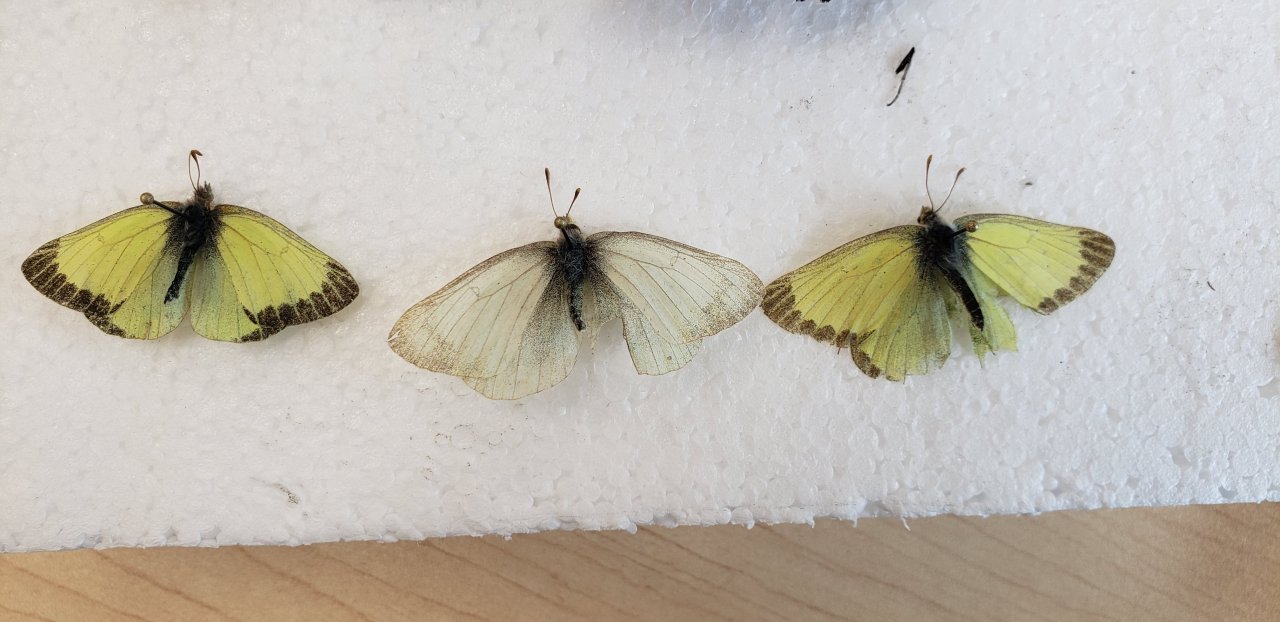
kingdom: Animalia
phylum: Arthropoda
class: Insecta
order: Lepidoptera
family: Pieridae
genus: Colias
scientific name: Colias pelidne
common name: Pelidne Sulphur
